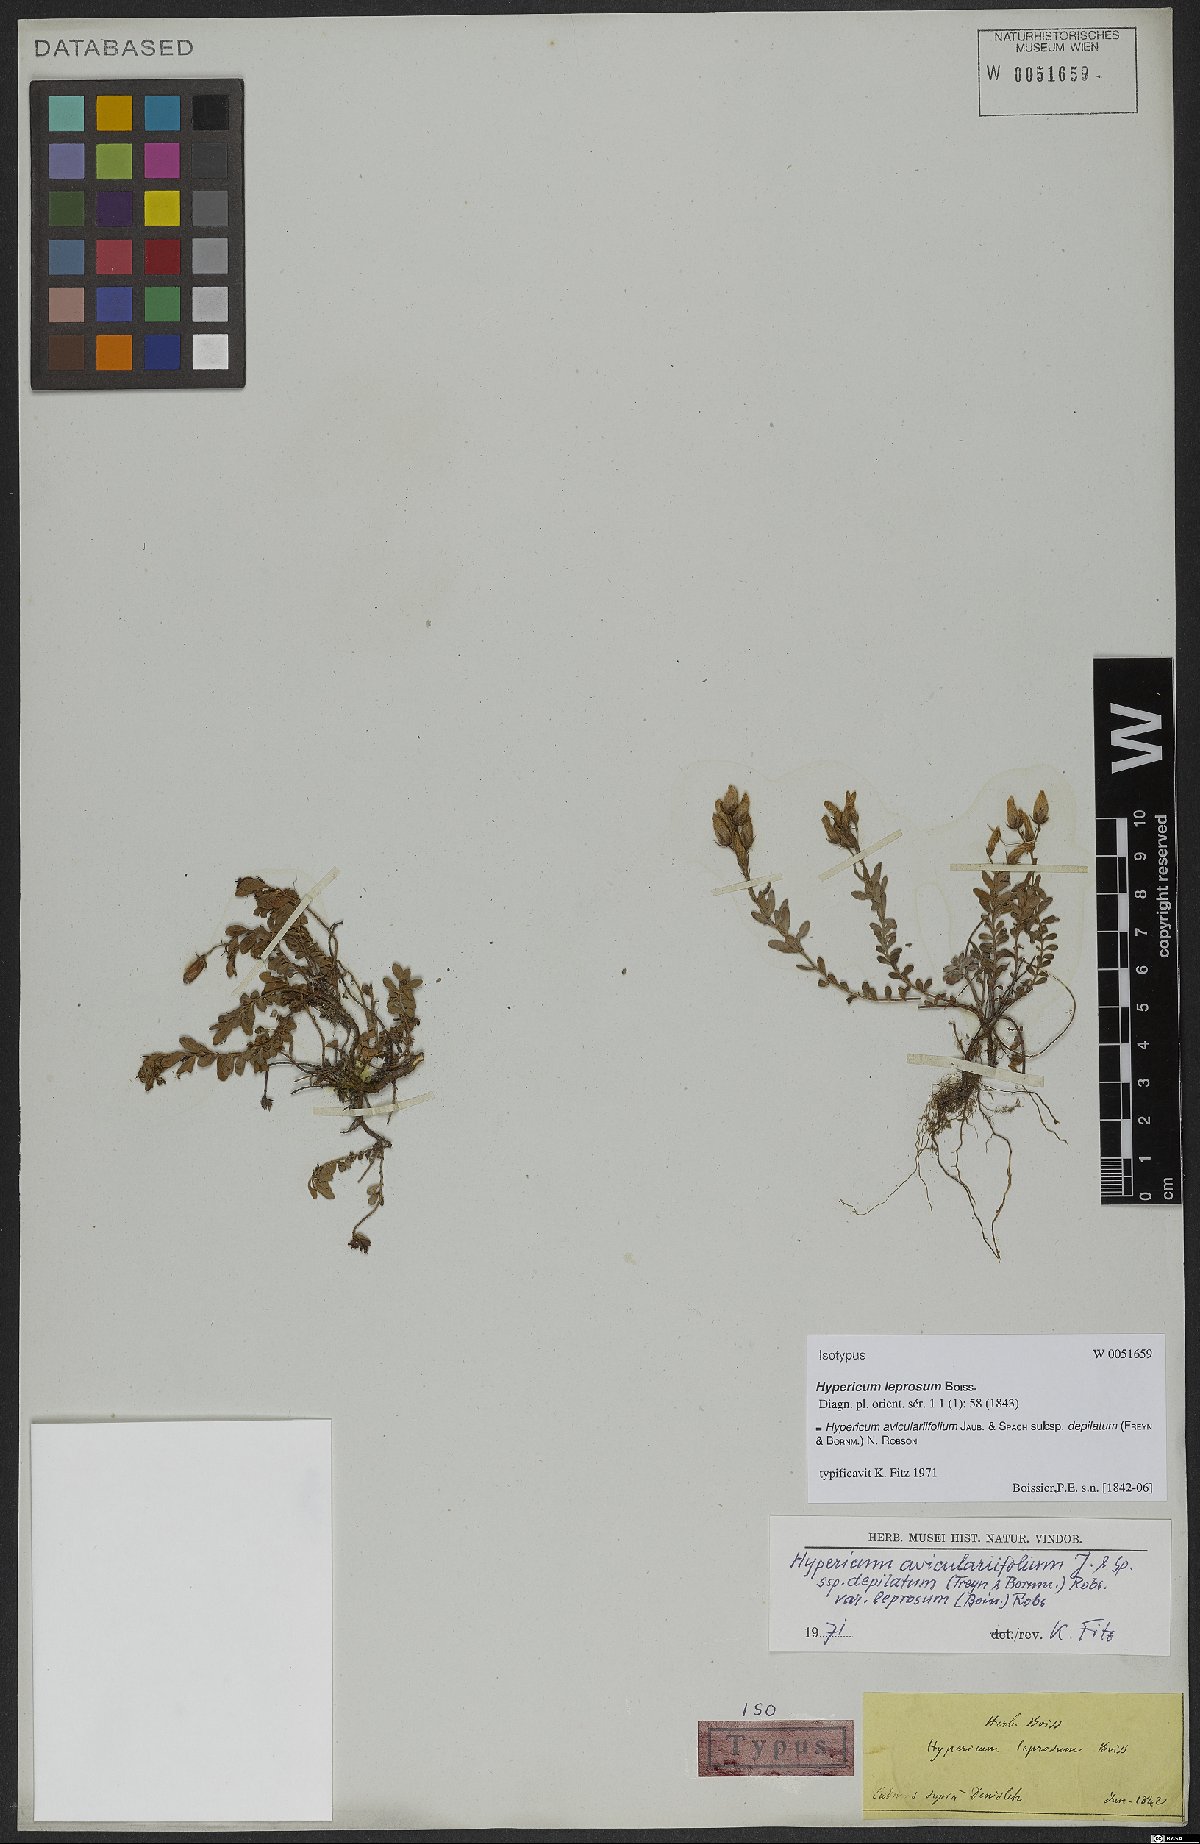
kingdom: Plantae
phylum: Tracheophyta
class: Magnoliopsida
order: Malpighiales
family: Hypericaceae
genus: Hypericum
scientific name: Hypericum orientale
